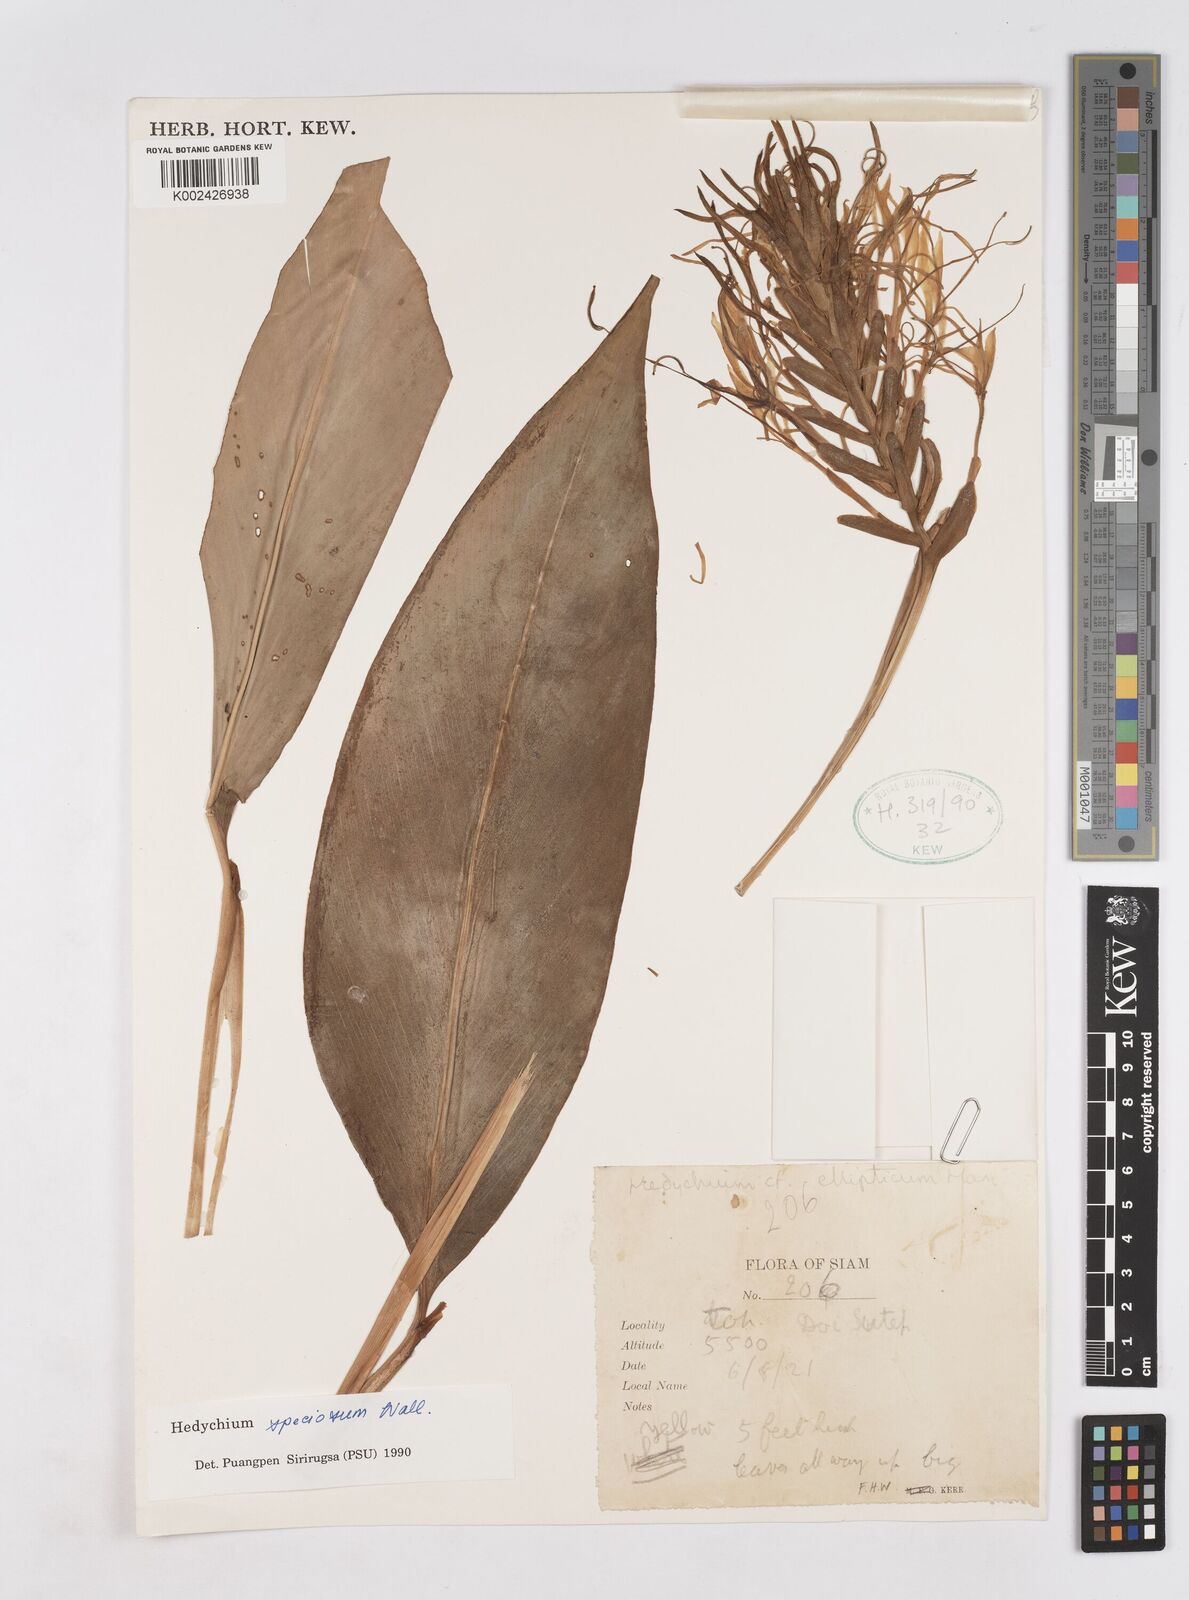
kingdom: Plantae
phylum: Tracheophyta
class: Liliopsida
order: Zingiberales
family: Zingiberaceae
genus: Hedychium
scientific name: Hedychium speciosum
